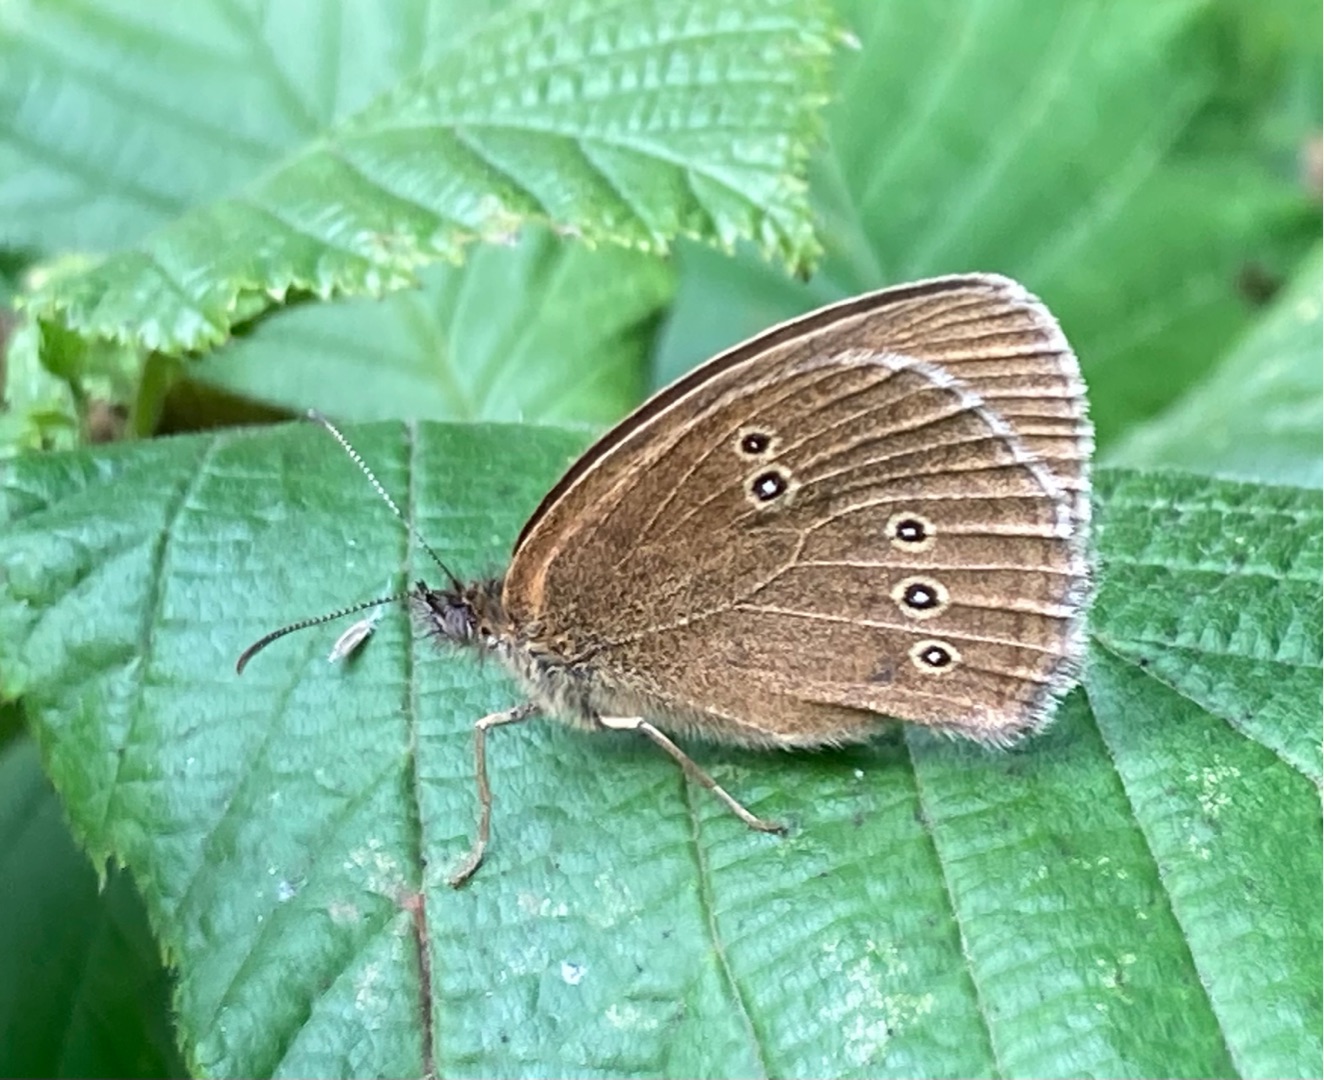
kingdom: Animalia
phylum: Arthropoda
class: Insecta
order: Lepidoptera
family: Nymphalidae
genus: Aphantopus
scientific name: Aphantopus hyperantus
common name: Engrandøje
